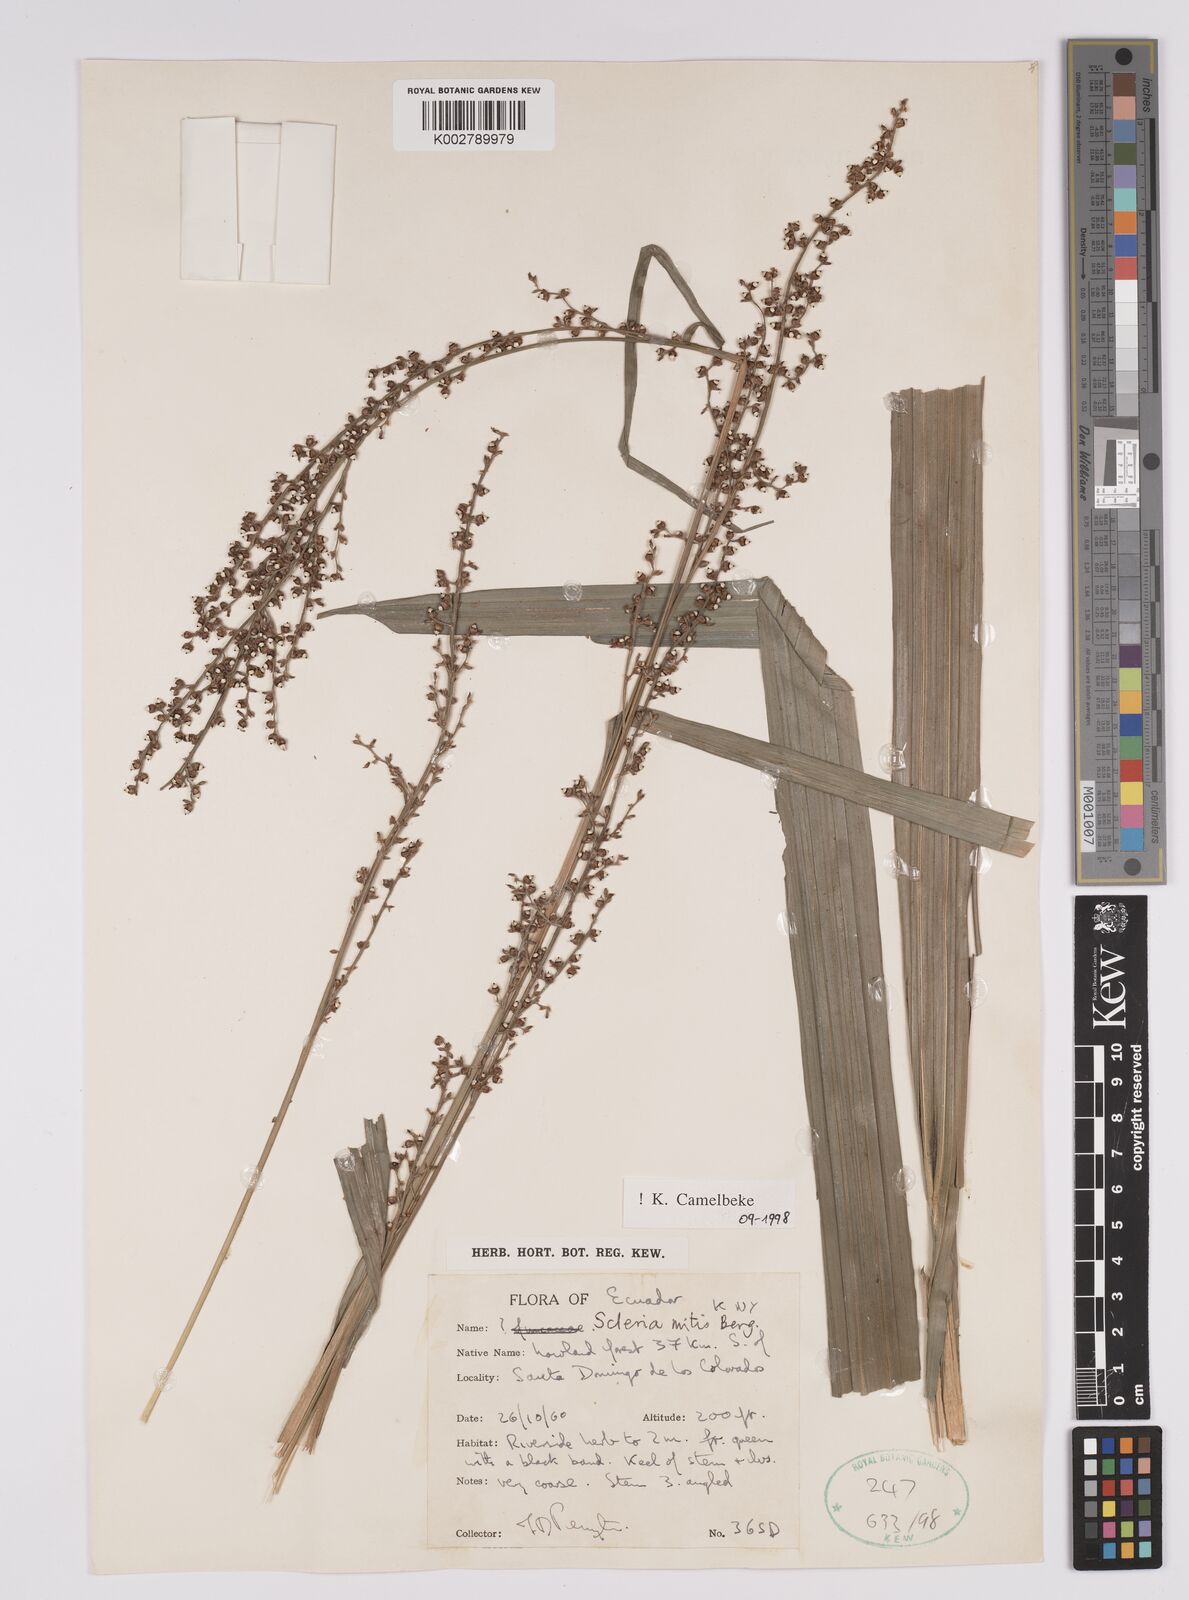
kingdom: Plantae
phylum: Tracheophyta
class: Liliopsida
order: Poales
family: Cyperaceae
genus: Scleria
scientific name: Scleria mitis
